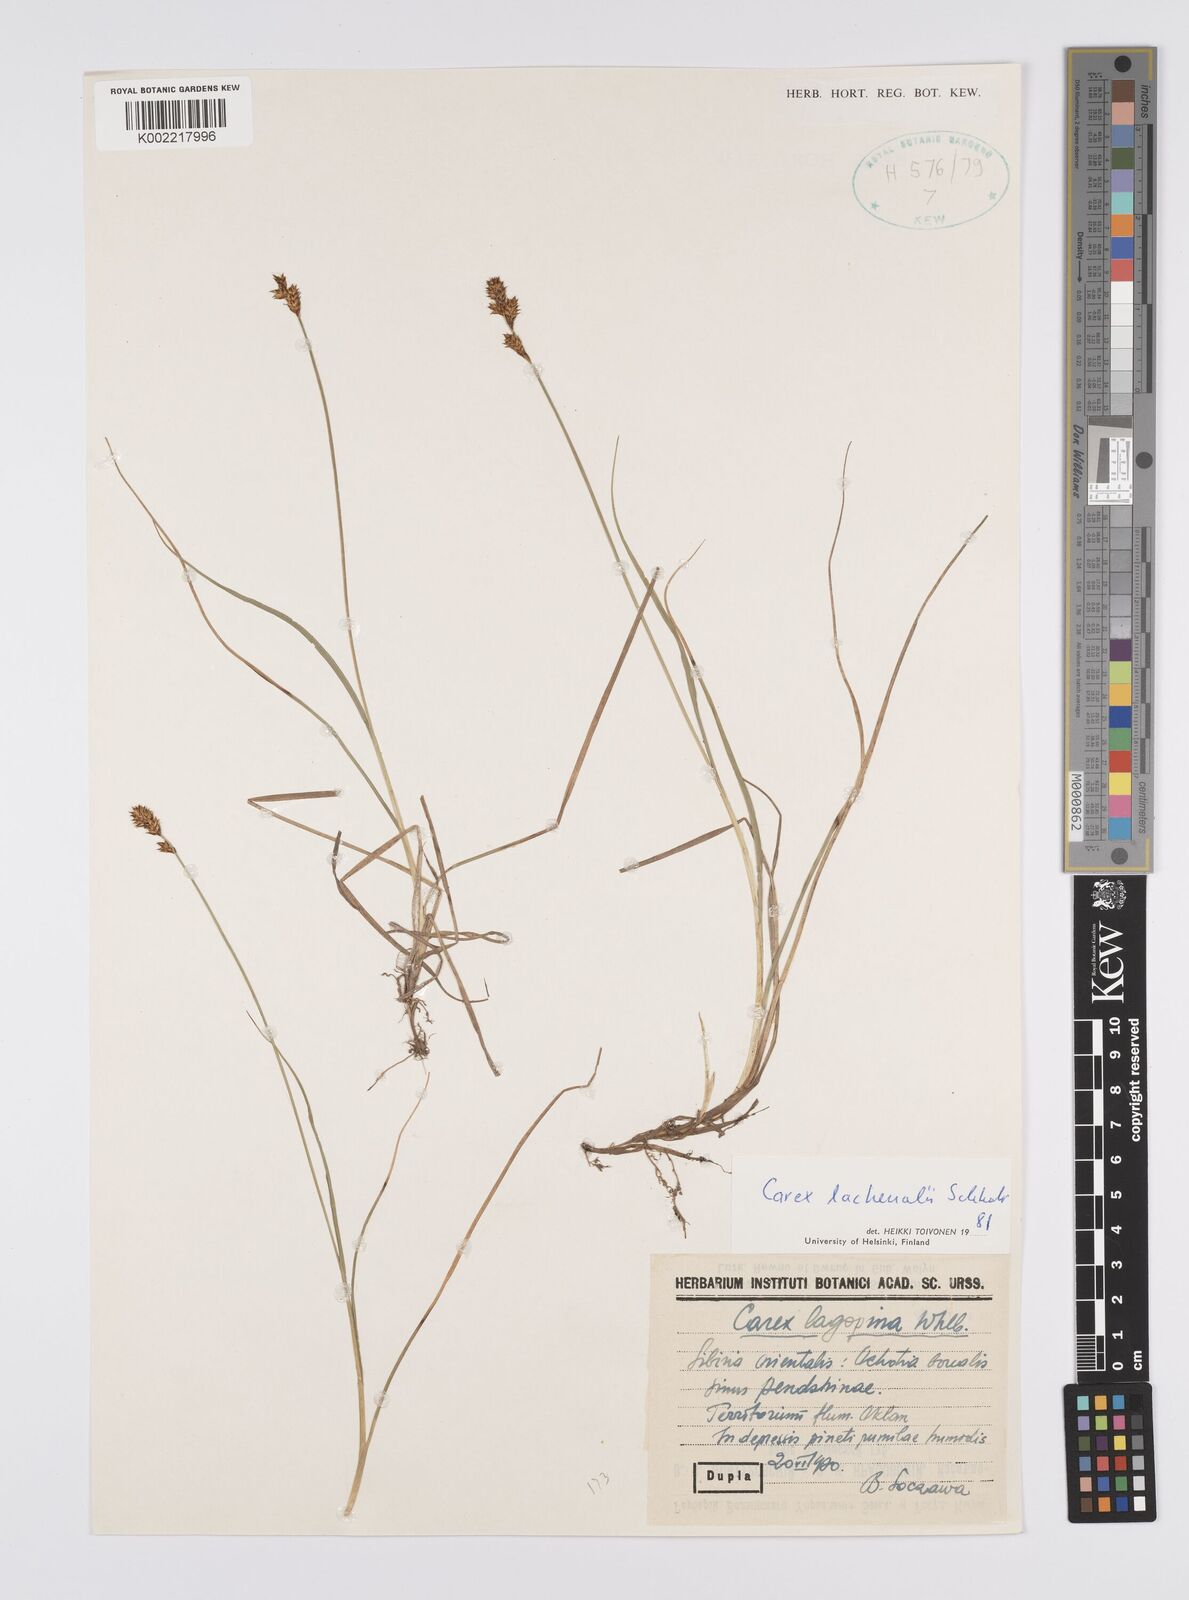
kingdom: Plantae
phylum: Tracheophyta
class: Liliopsida
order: Poales
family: Cyperaceae
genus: Carex
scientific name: Carex lachenalii
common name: Hare's-foot sedge
